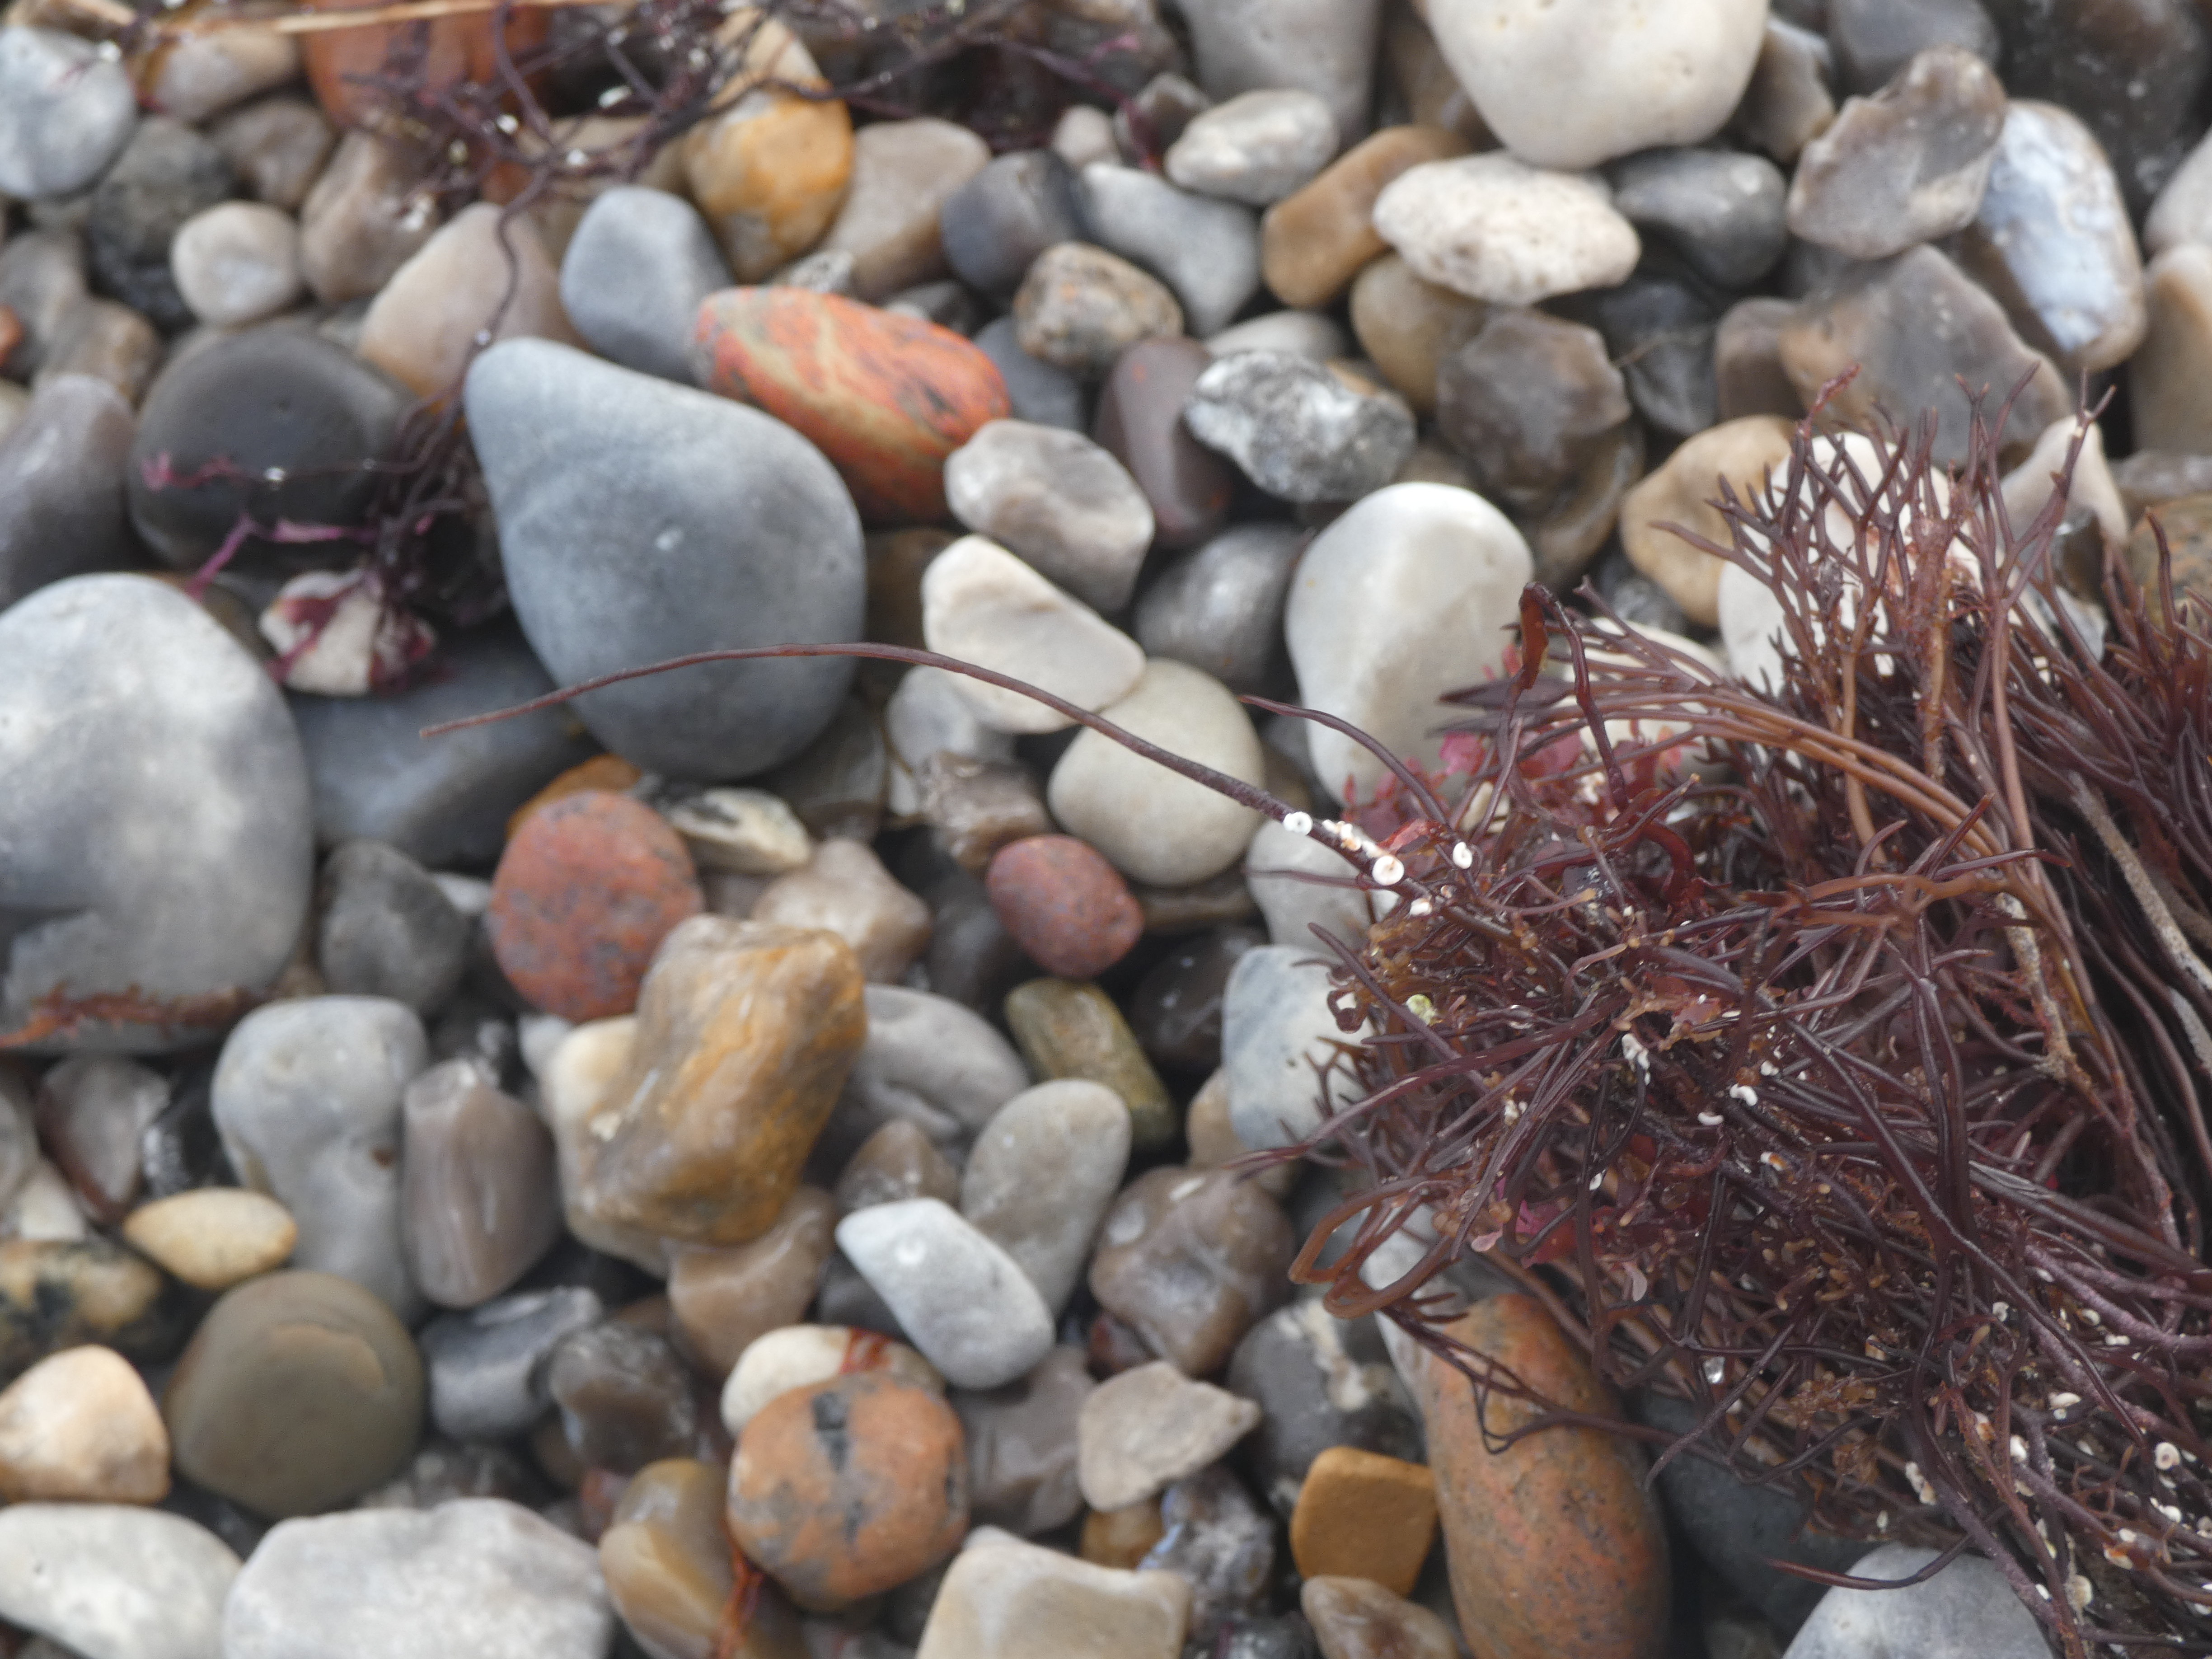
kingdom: Plantae
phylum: Rhodophyta
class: Florideophyceae
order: Gigartinales
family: Furcellariaceae
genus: Furcellaria
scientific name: Furcellaria lumbricalis
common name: Gaffeltang
